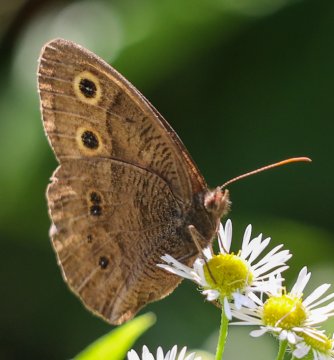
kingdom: Animalia
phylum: Arthropoda
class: Insecta
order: Lepidoptera
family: Nymphalidae
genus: Cercyonis
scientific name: Cercyonis pegala
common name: Common Wood-Nymph
